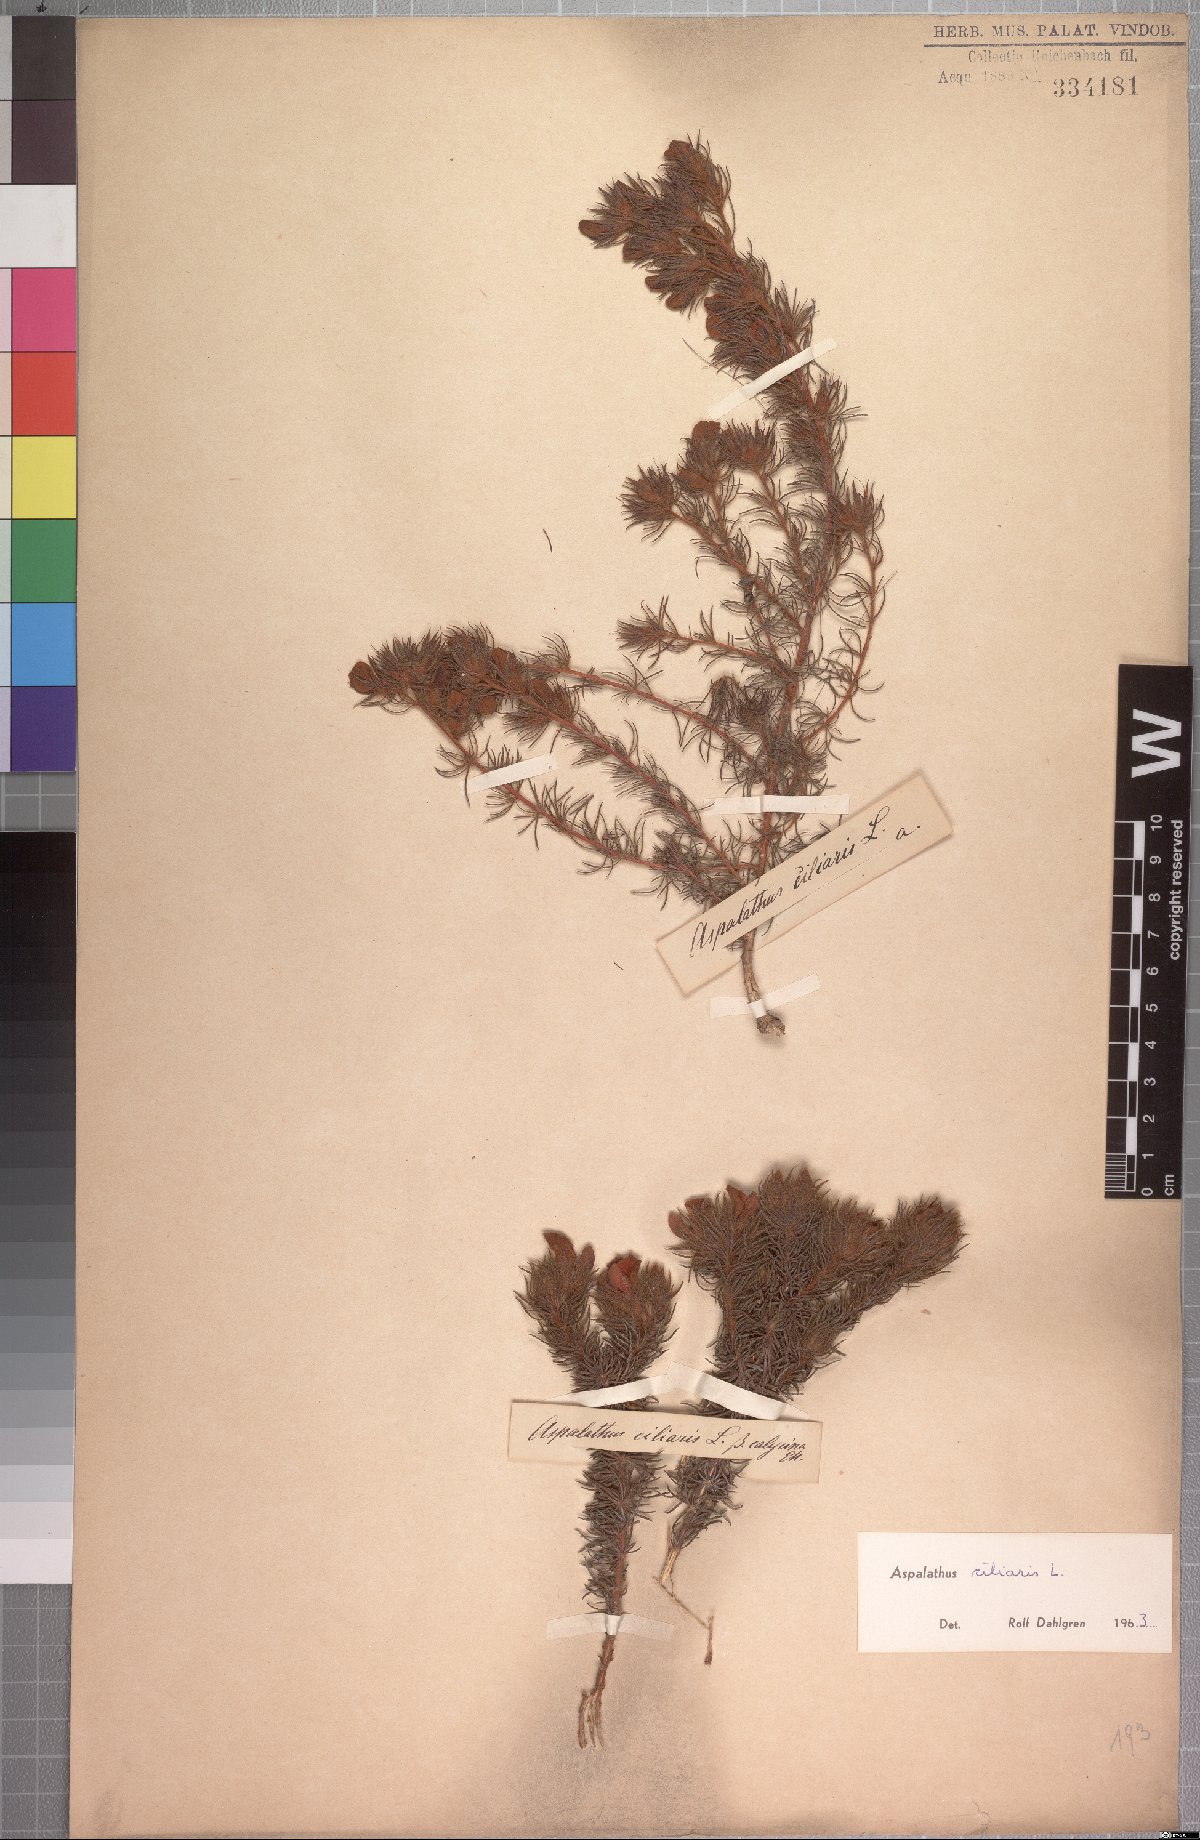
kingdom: Plantae
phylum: Tracheophyta
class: Magnoliopsida
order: Fabales
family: Fabaceae
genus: Aspalathus
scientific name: Aspalathus ciliaris
